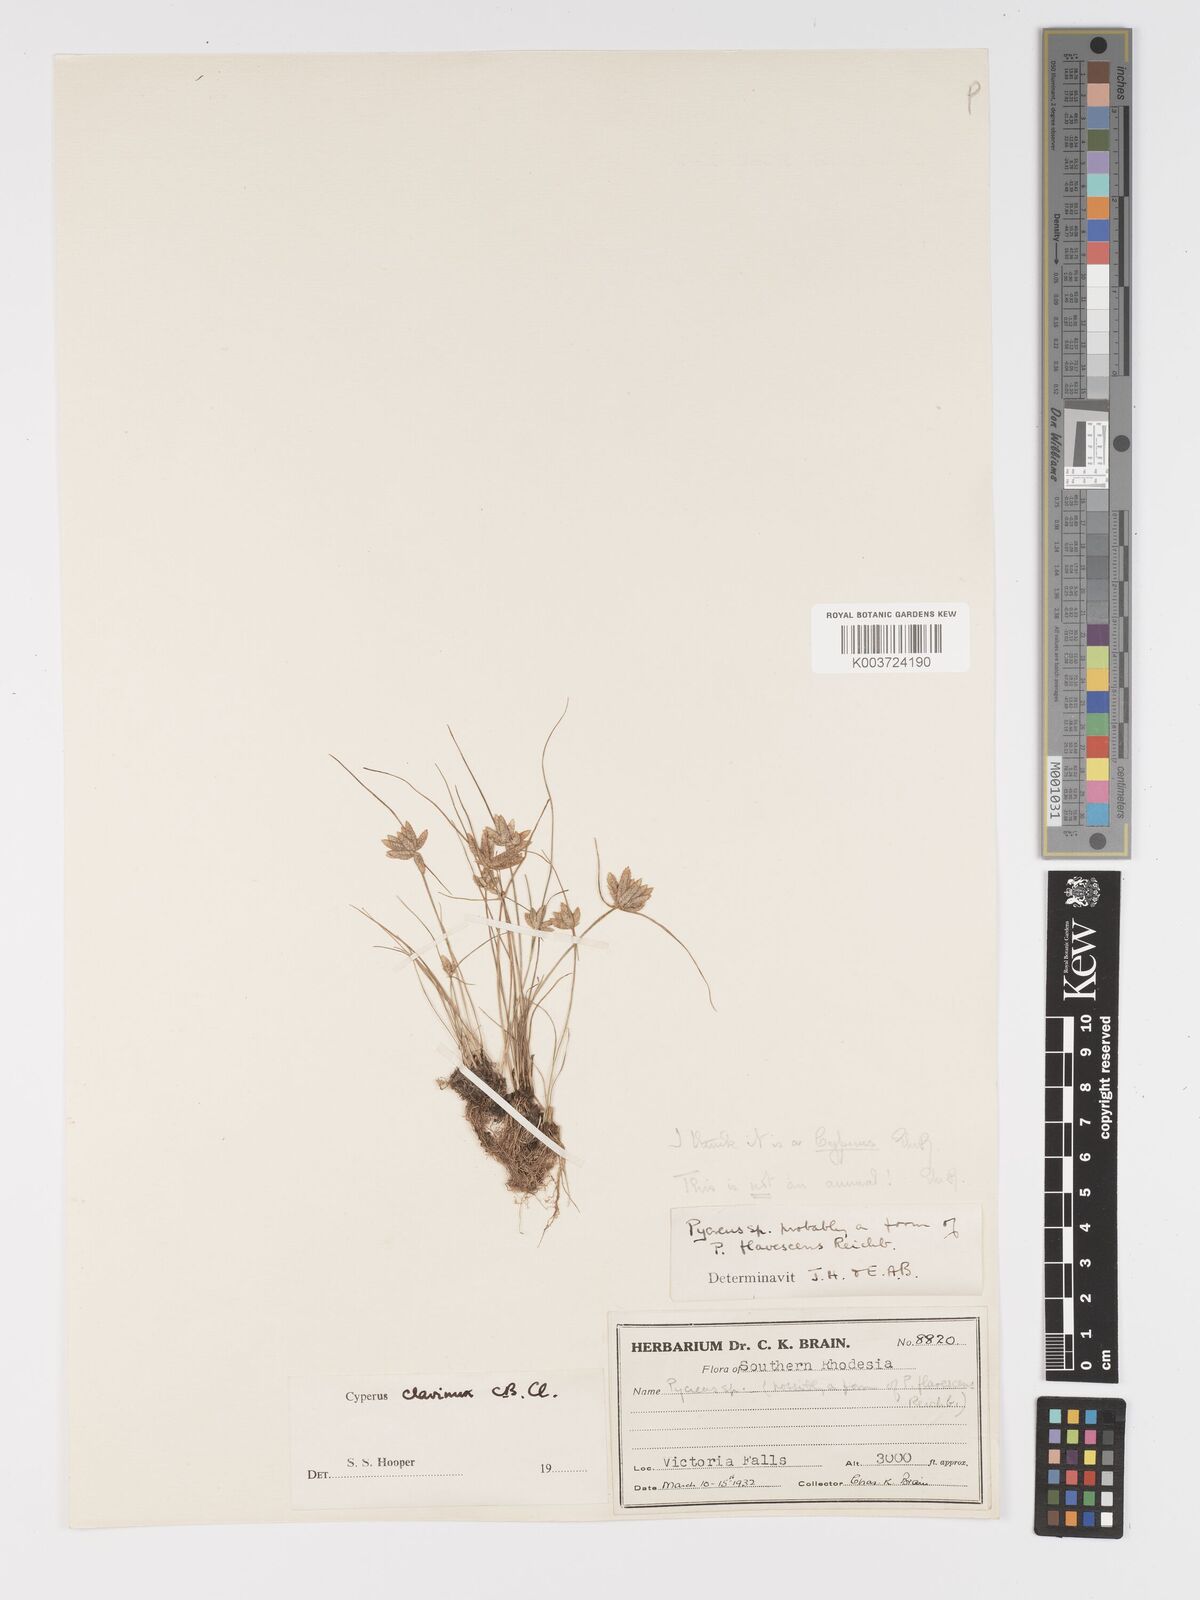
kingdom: Plantae
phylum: Tracheophyta
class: Liliopsida
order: Poales
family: Cyperaceae
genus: Cyperus
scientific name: Cyperus clavinux
